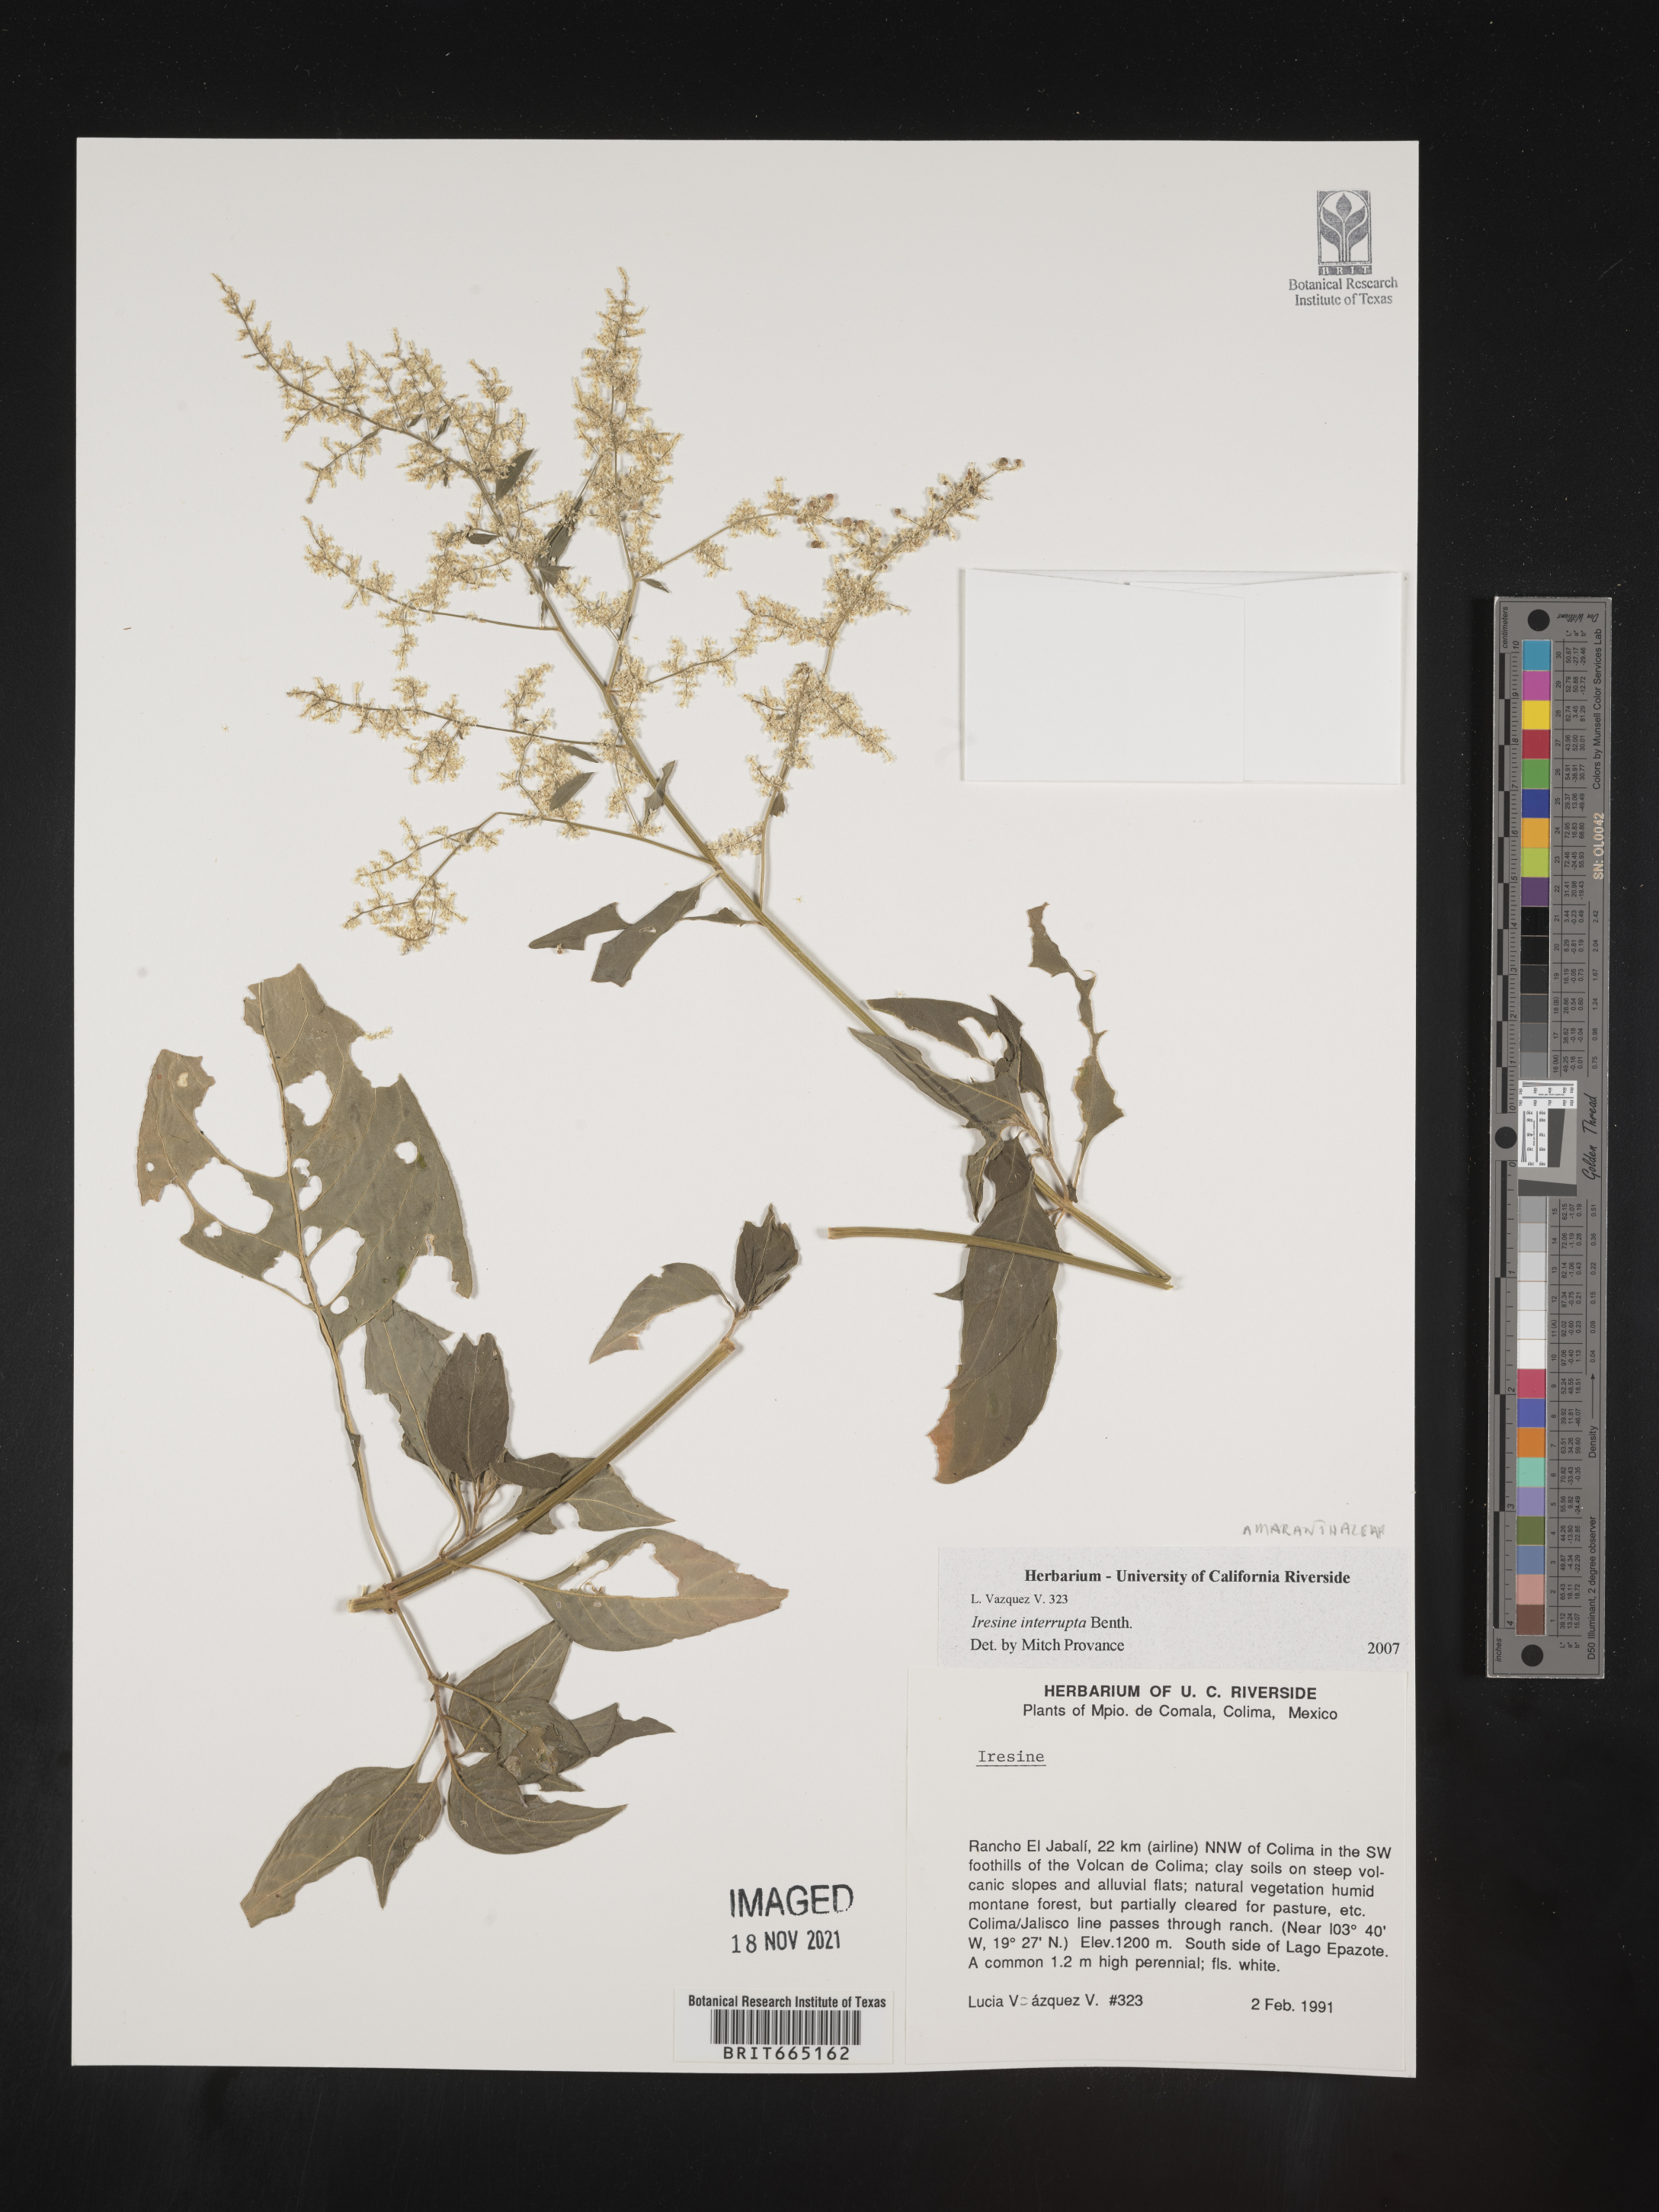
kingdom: Plantae
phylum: Tracheophyta
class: Magnoliopsida
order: Caryophyllales
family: Amaranthaceae
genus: Iresine
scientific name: Iresine
